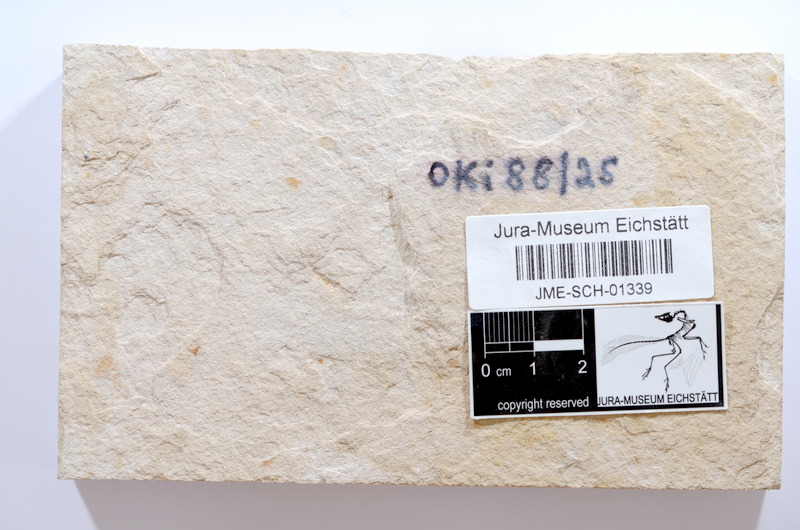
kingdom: Animalia
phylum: Chordata
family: Ascalaboidae
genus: Tharsis
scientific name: Tharsis dubius
